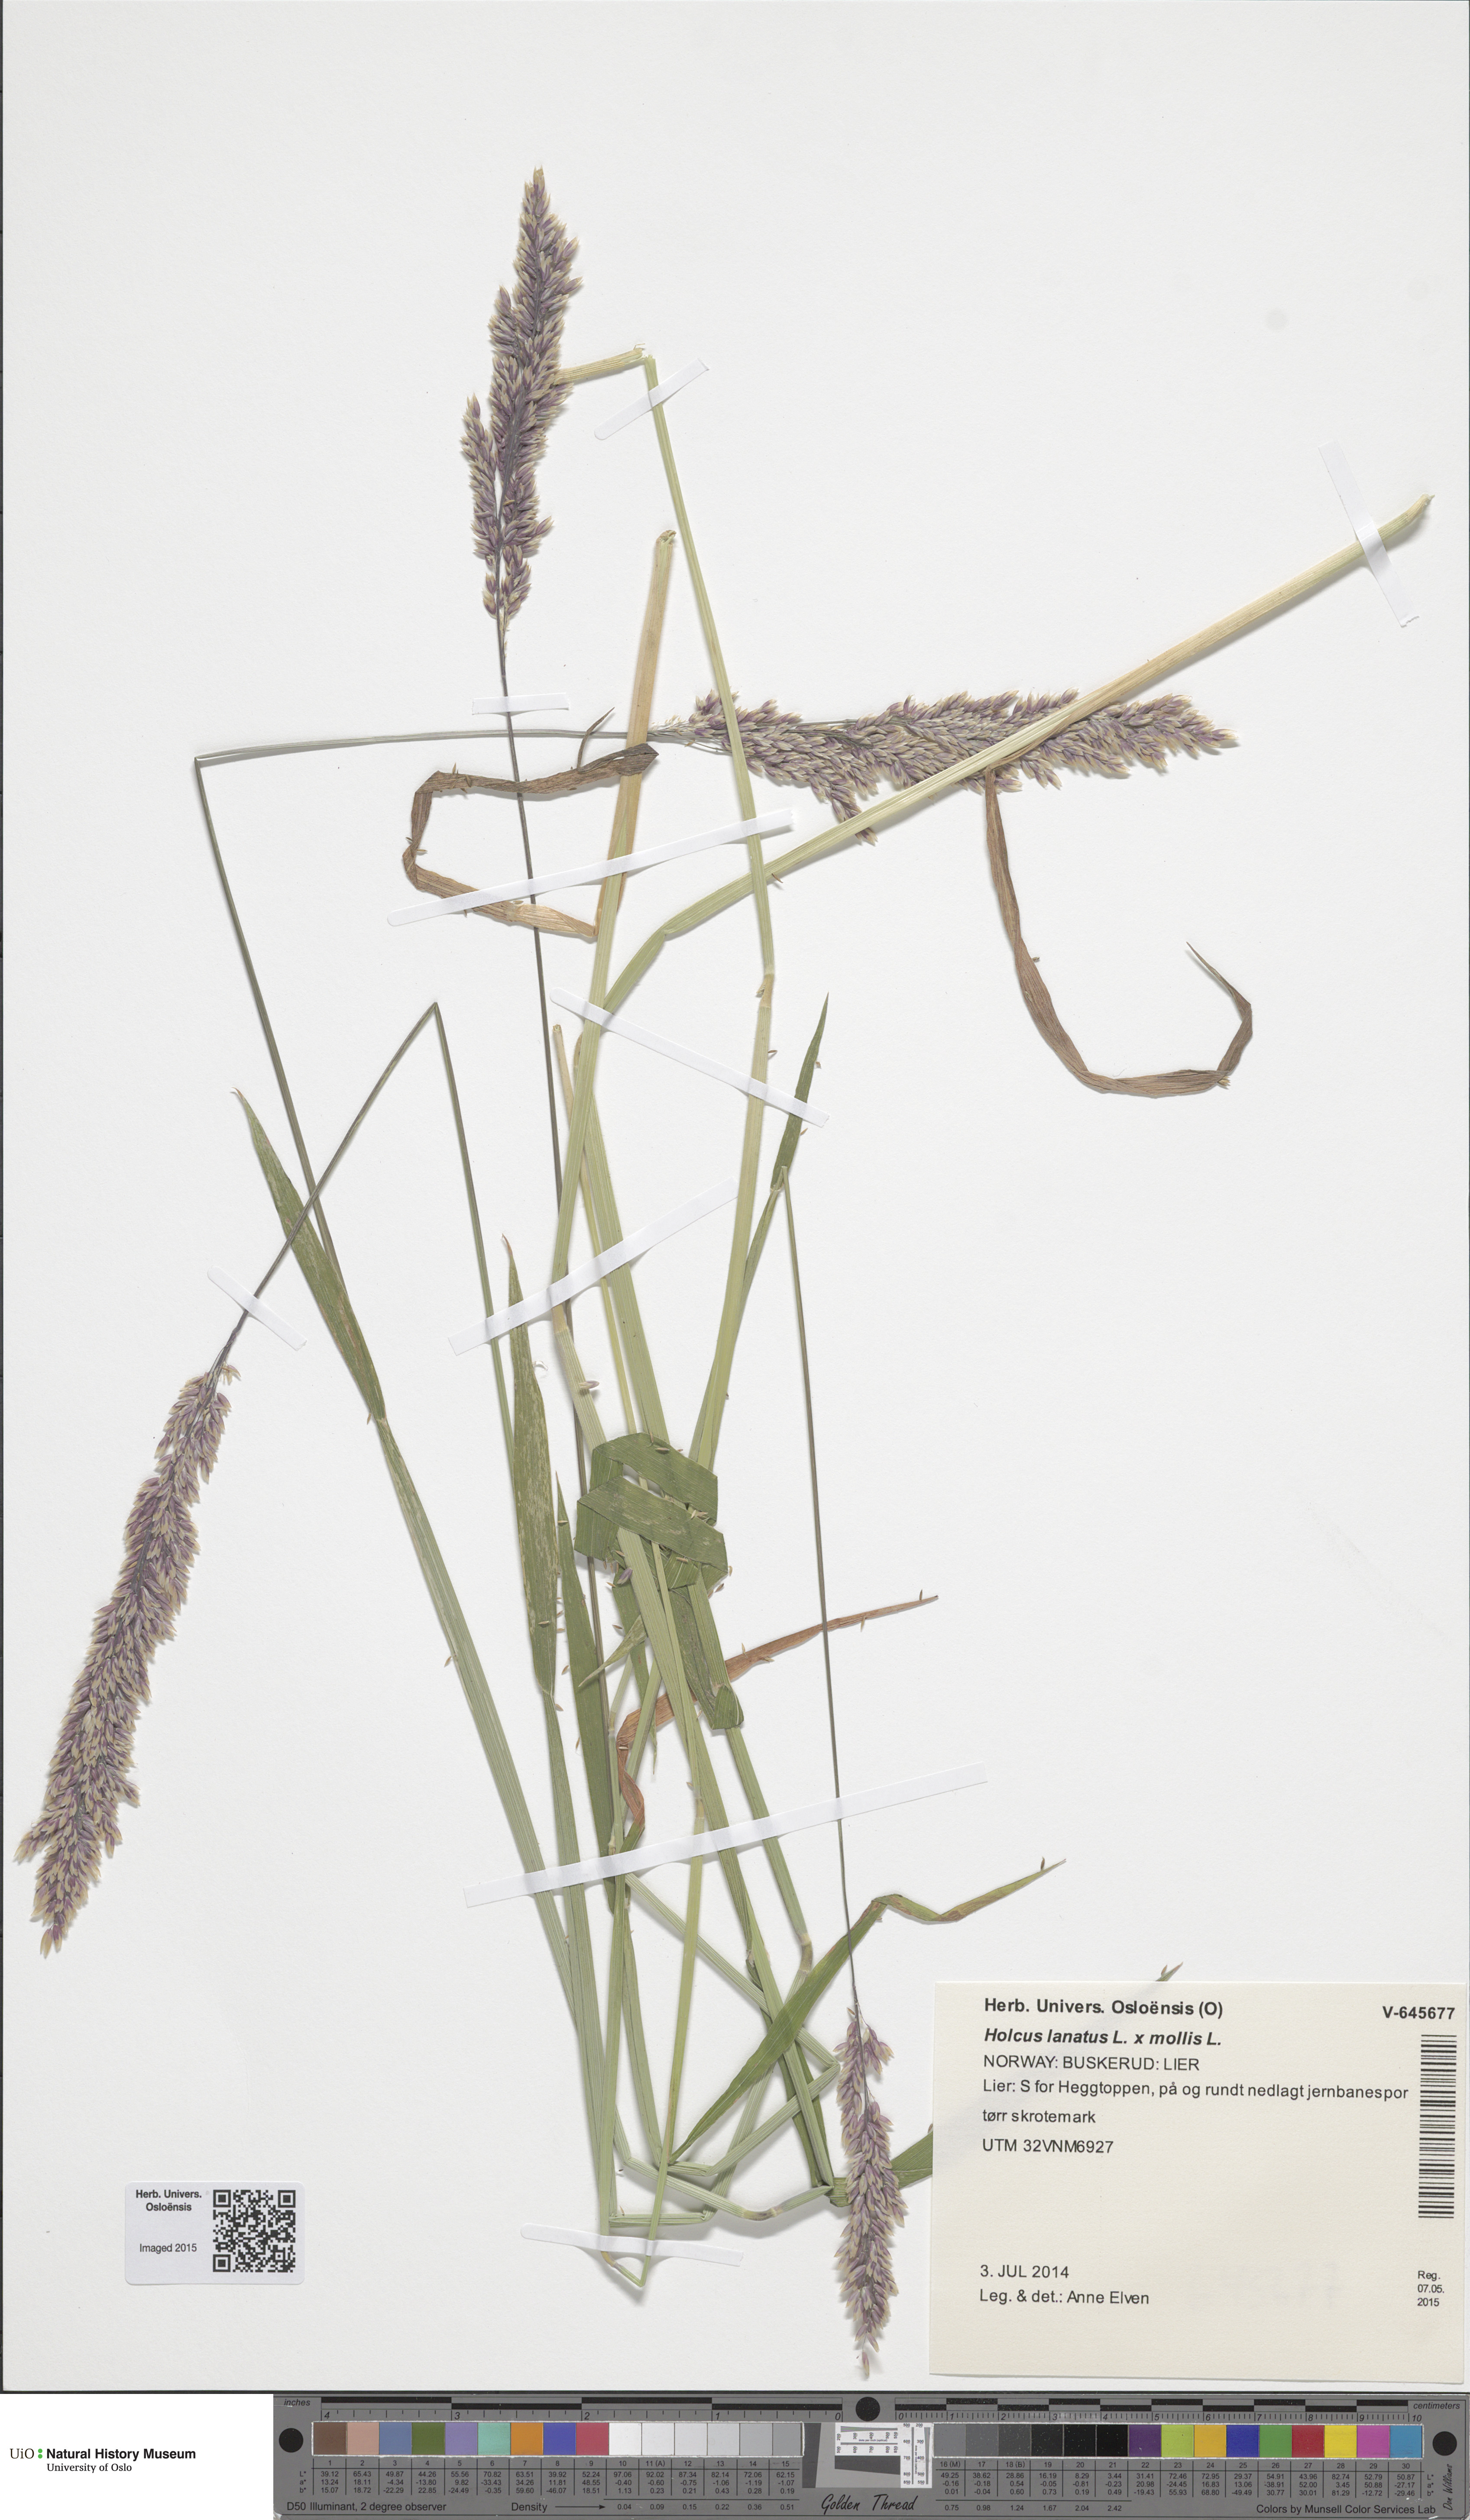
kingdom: Plantae
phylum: Tracheophyta
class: Liliopsida
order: Poales
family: Poaceae
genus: Holcus
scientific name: Holcus
